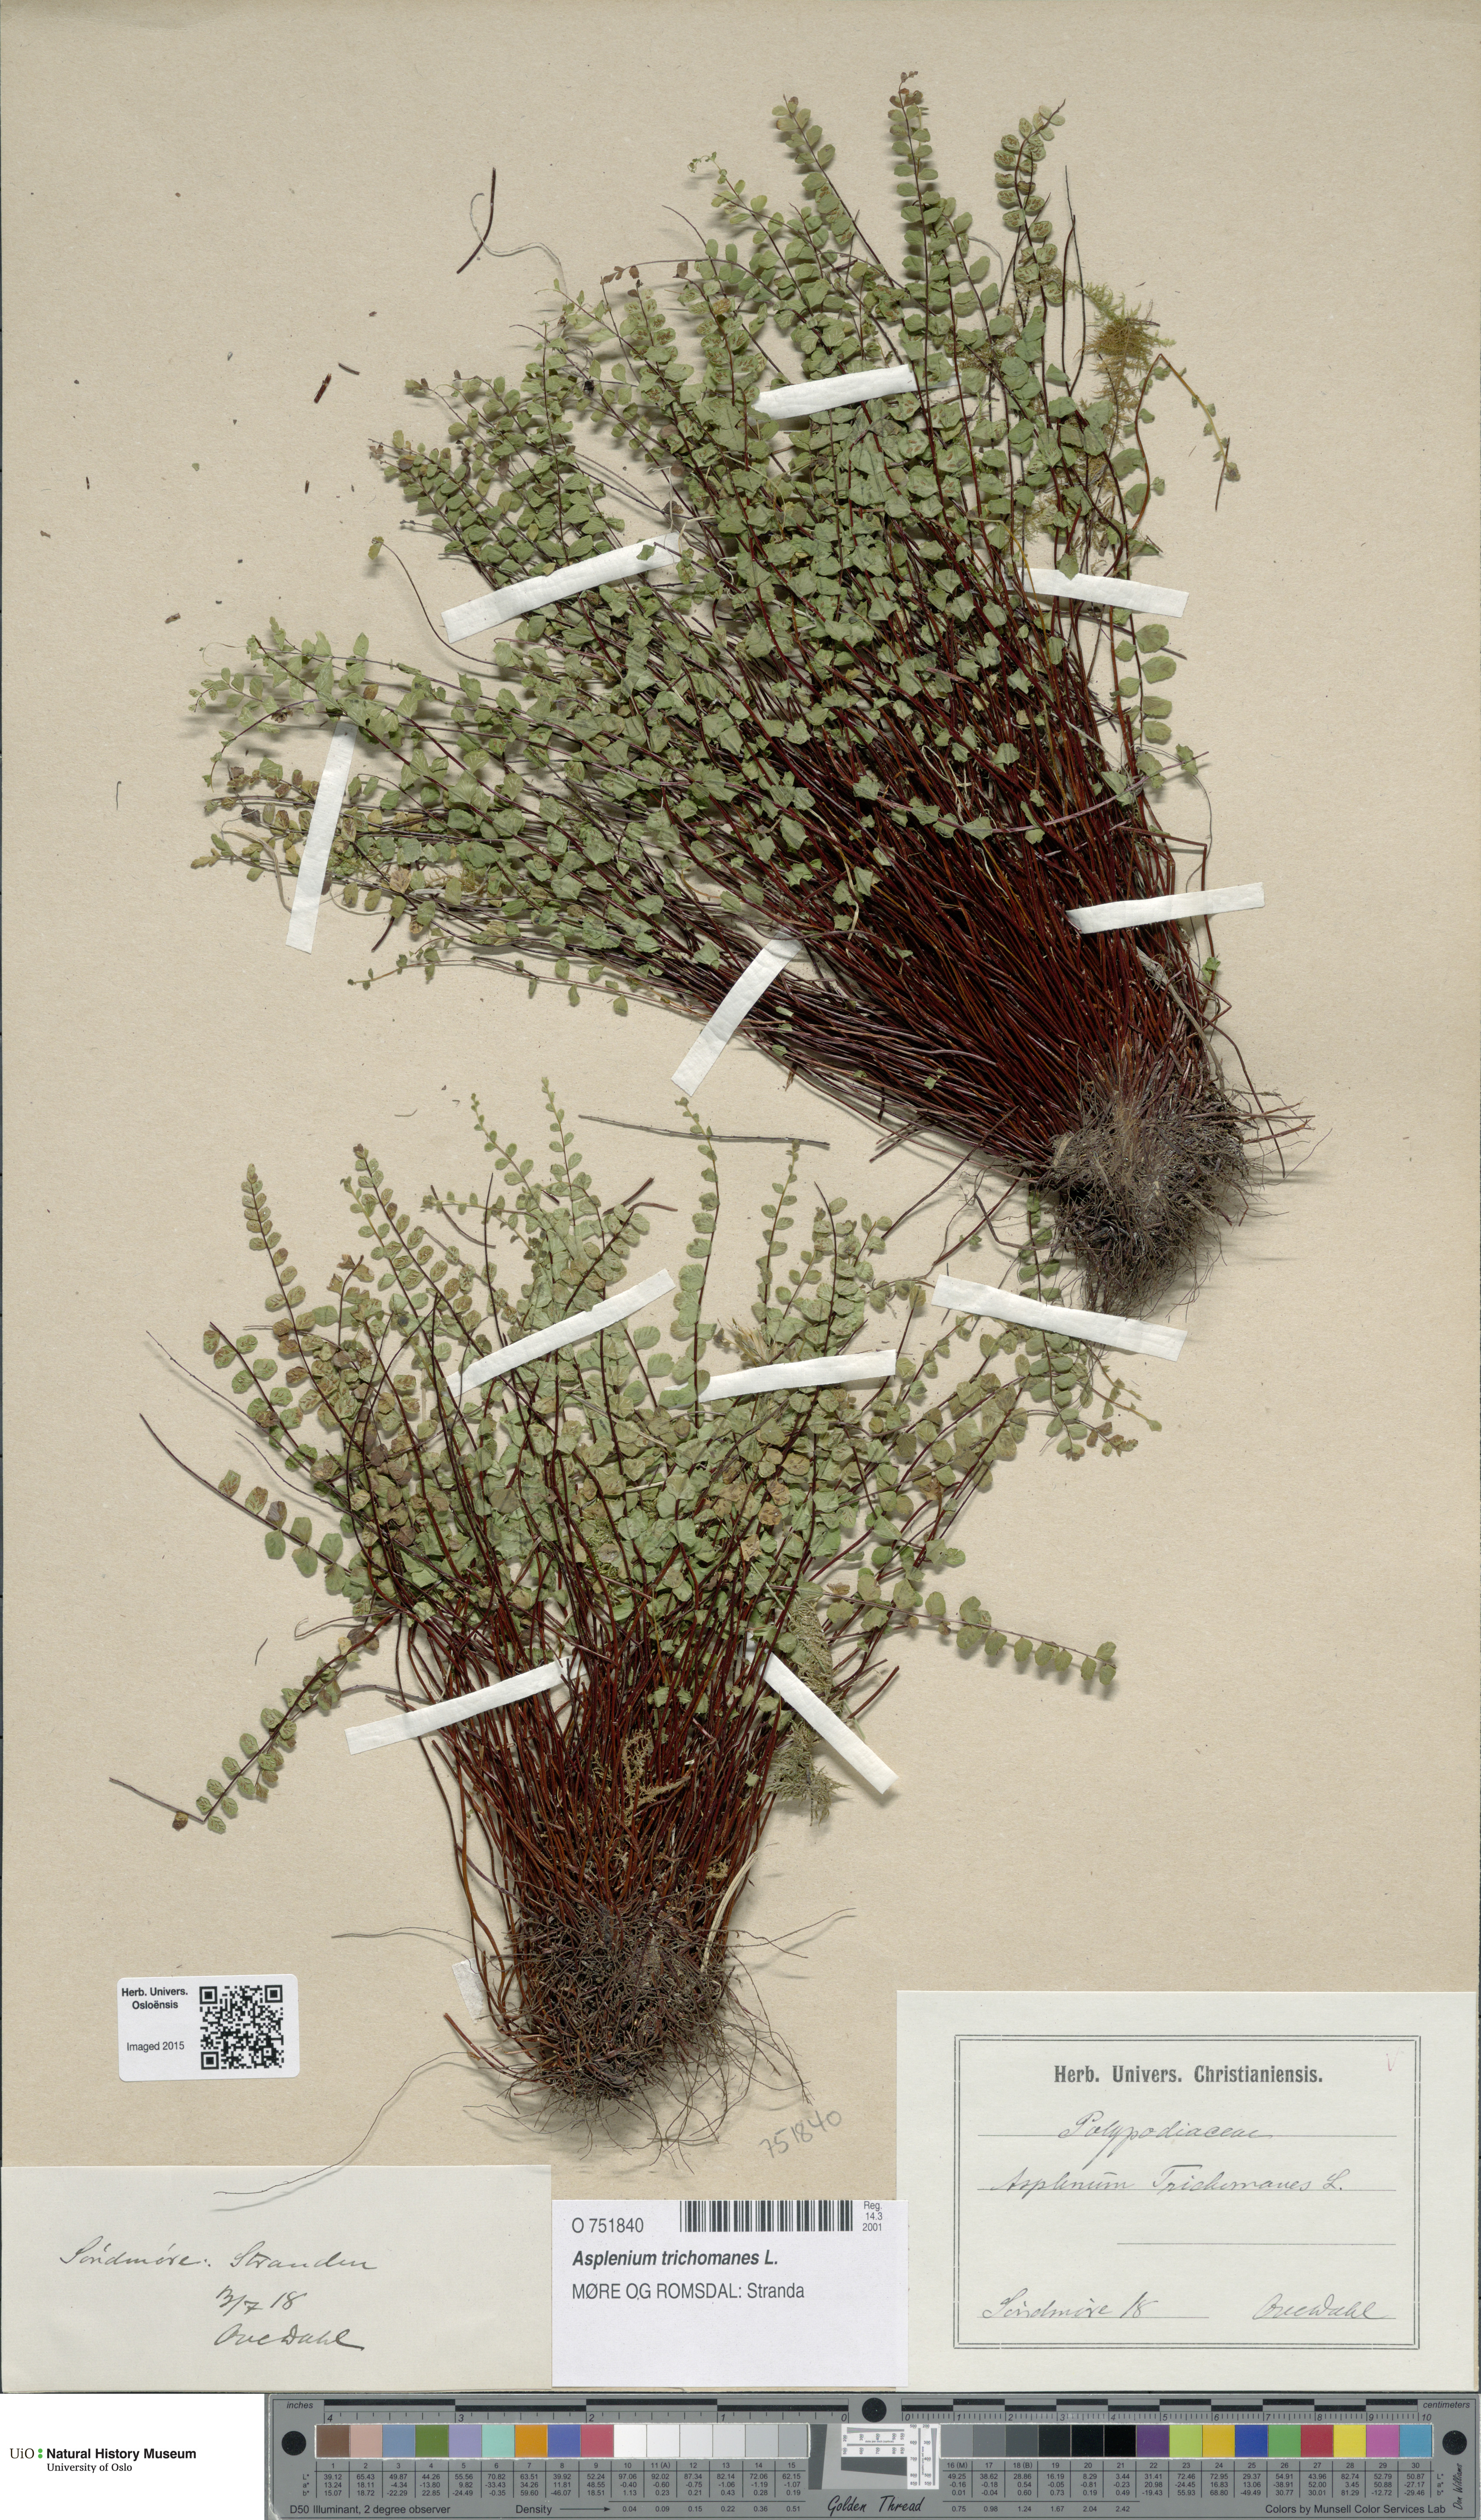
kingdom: Plantae
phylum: Tracheophyta
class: Polypodiopsida
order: Polypodiales
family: Aspleniaceae
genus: Asplenium
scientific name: Asplenium trichomanes
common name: Maidenhair spleenwort
